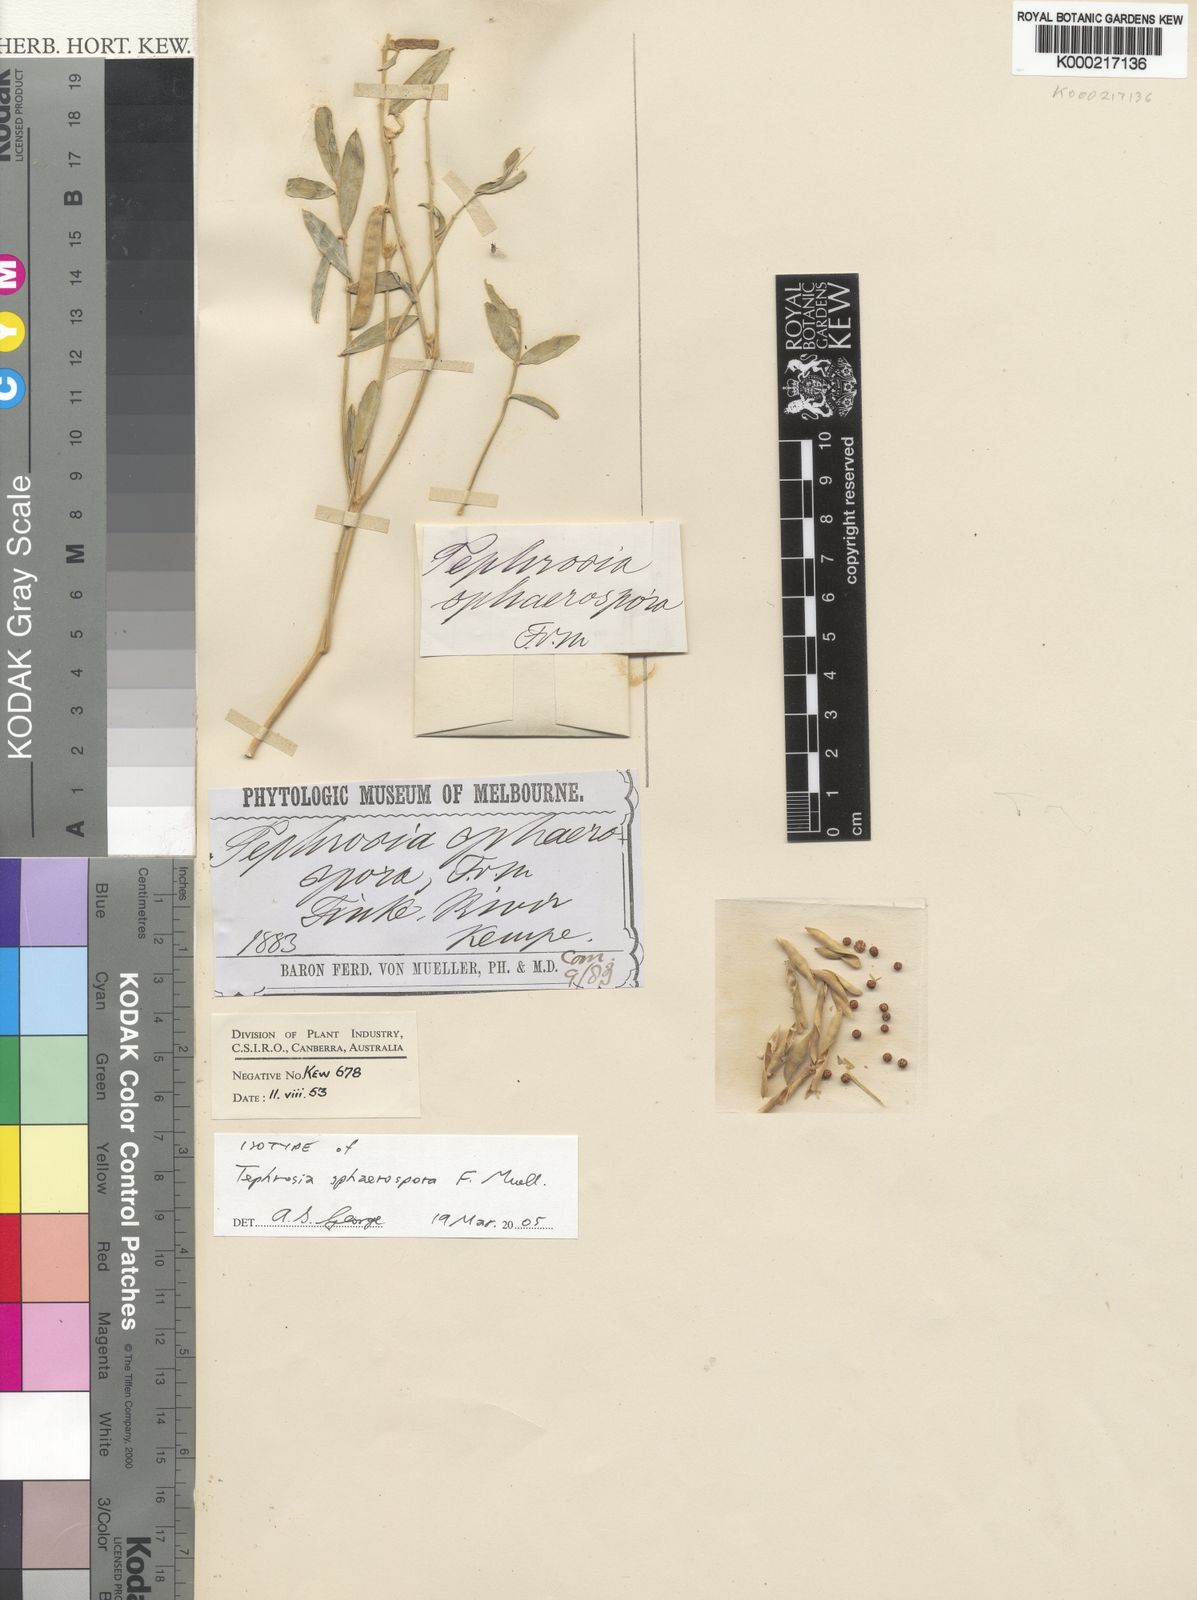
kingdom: Plantae
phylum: Tracheophyta
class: Magnoliopsida
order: Fabales
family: Fabaceae
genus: Tephrosia
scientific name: Tephrosia sphaerospora
